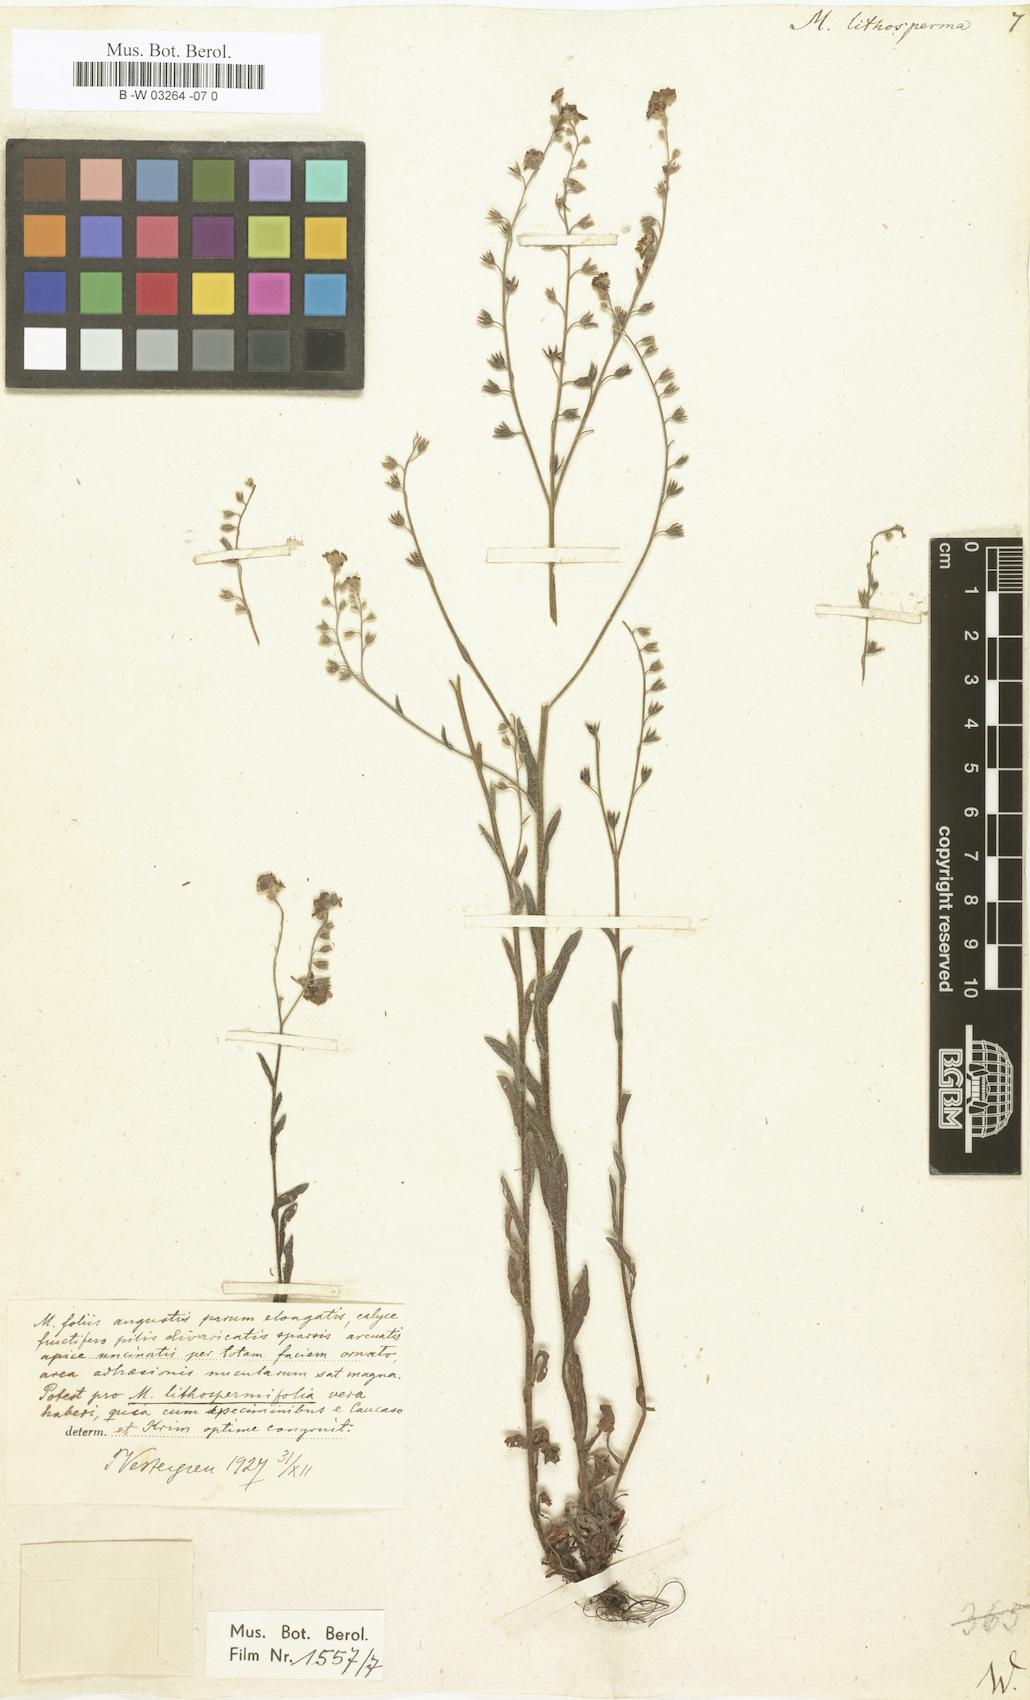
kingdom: Plantae
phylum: Tracheophyta
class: Magnoliopsida
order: Boraginales
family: Boraginaceae
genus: Myosotis
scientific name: Myosotis
